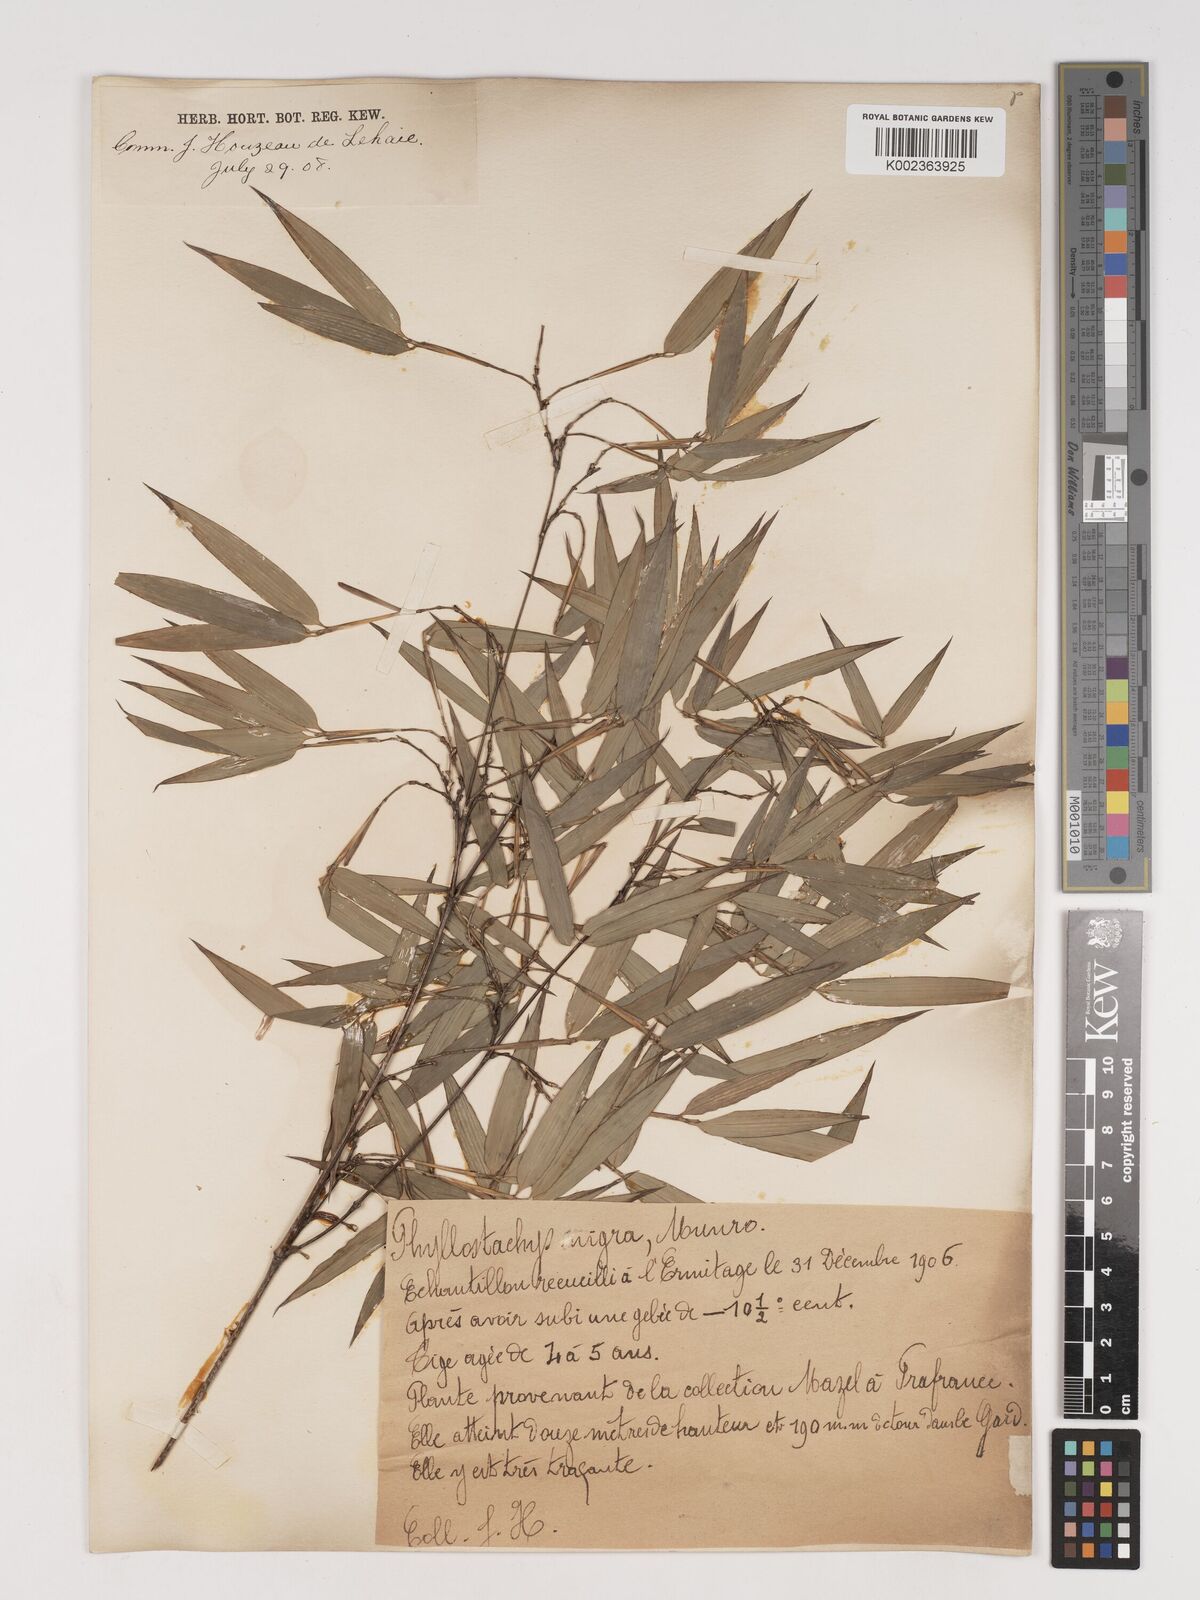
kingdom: Plantae
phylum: Tracheophyta
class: Liliopsida
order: Poales
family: Poaceae
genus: Phyllostachys
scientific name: Phyllostachys nigra
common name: Black bamboo
